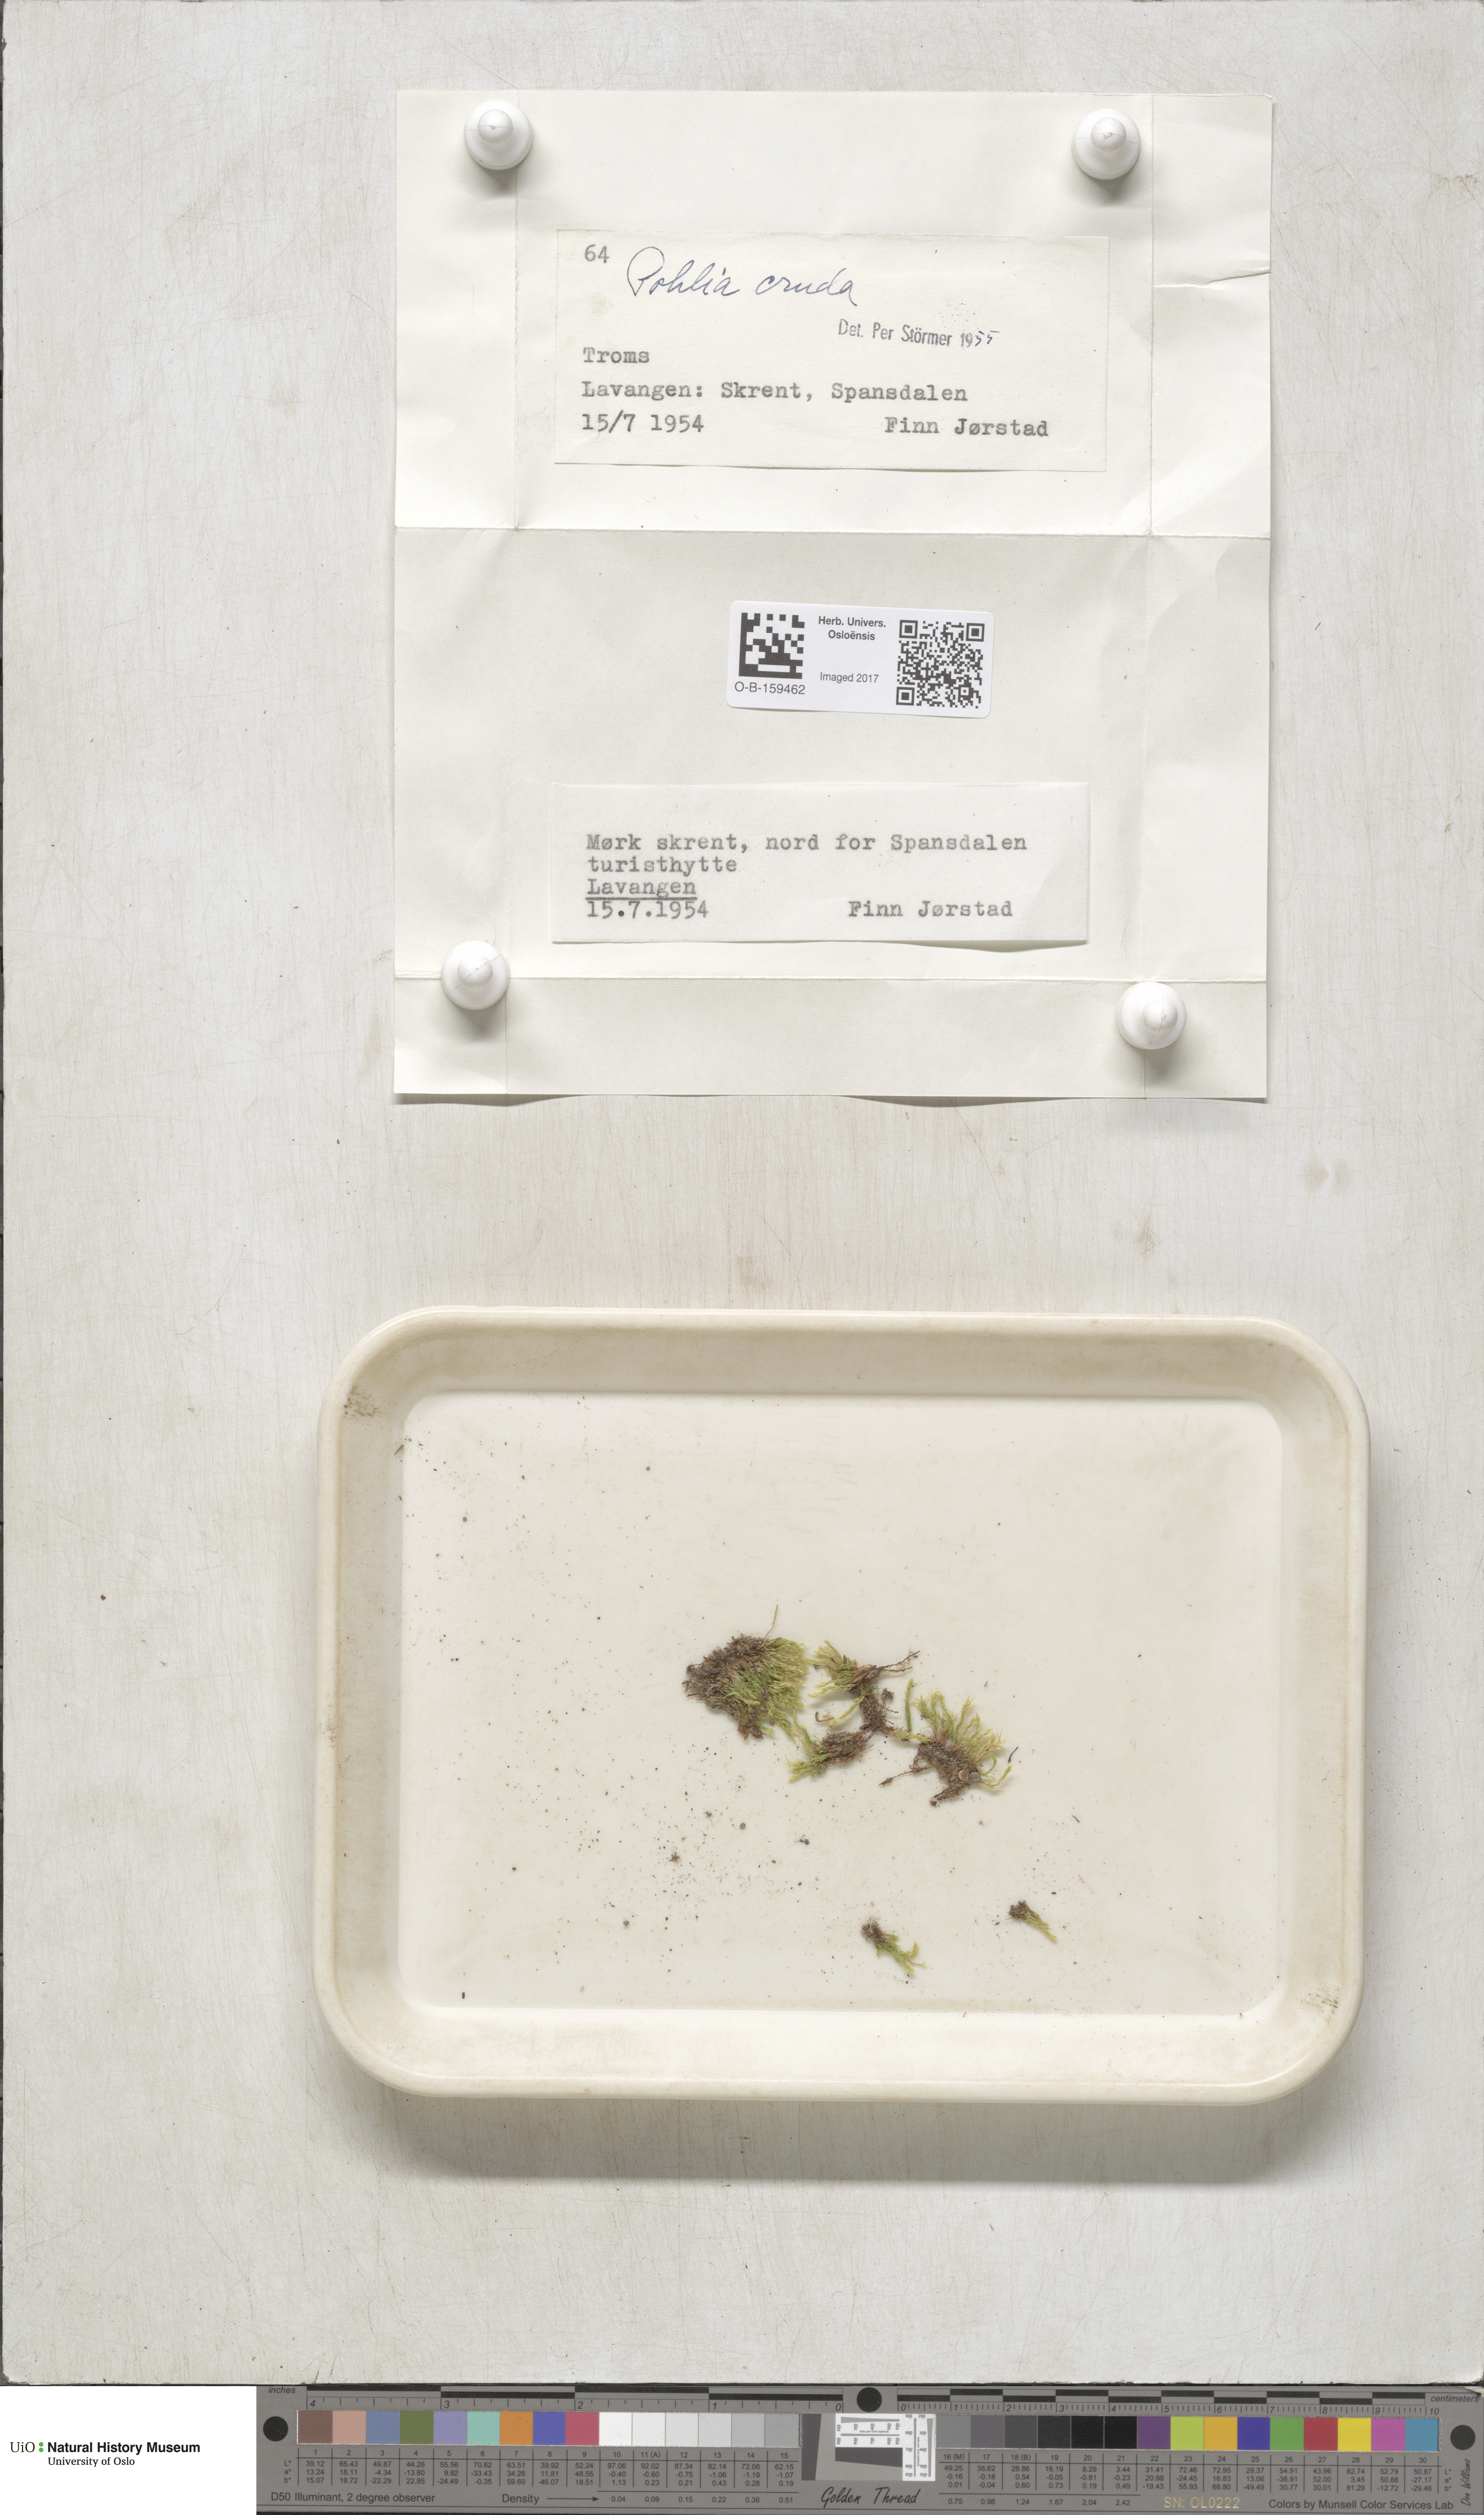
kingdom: Plantae
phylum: Bryophyta
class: Bryopsida
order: Bryales
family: Mniaceae
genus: Pohlia
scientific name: Pohlia cruda
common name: Opal nodding moss
